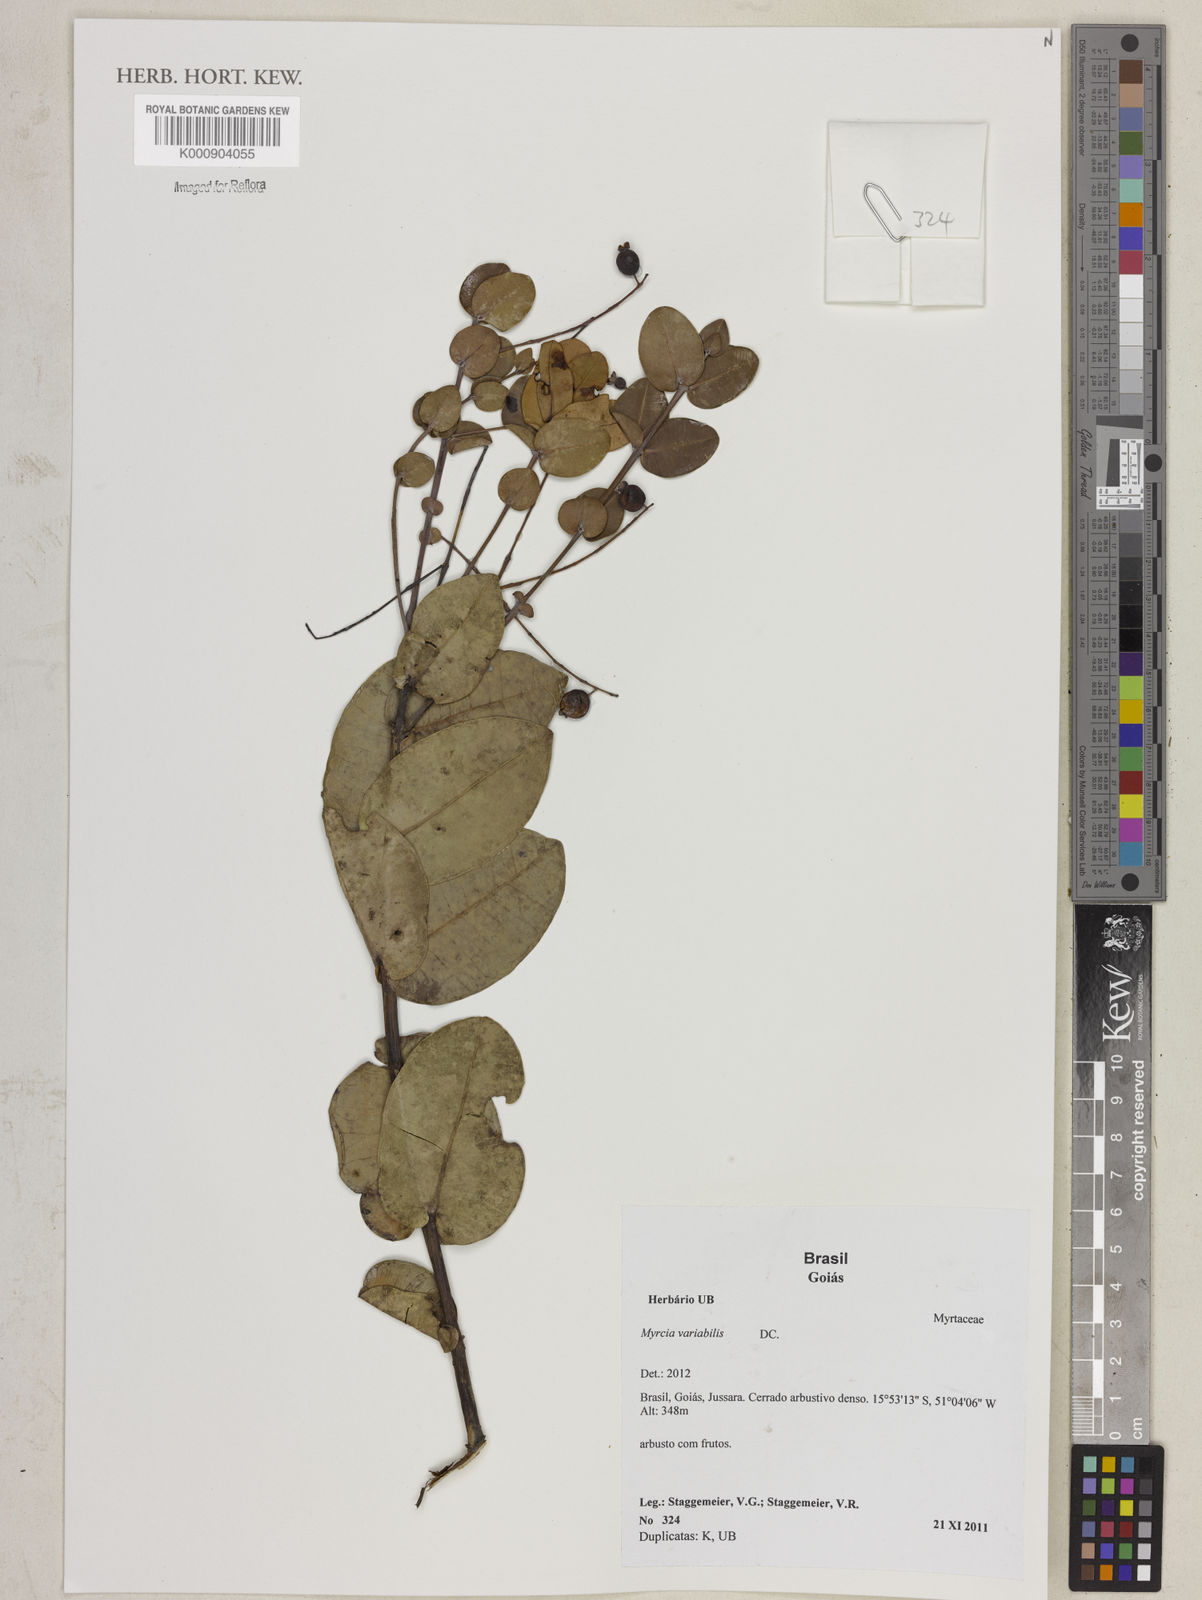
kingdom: Plantae
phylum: Tracheophyta
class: Magnoliopsida
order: Myrtales
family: Myrtaceae
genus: Myrcia
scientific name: Myrcia variabilis
